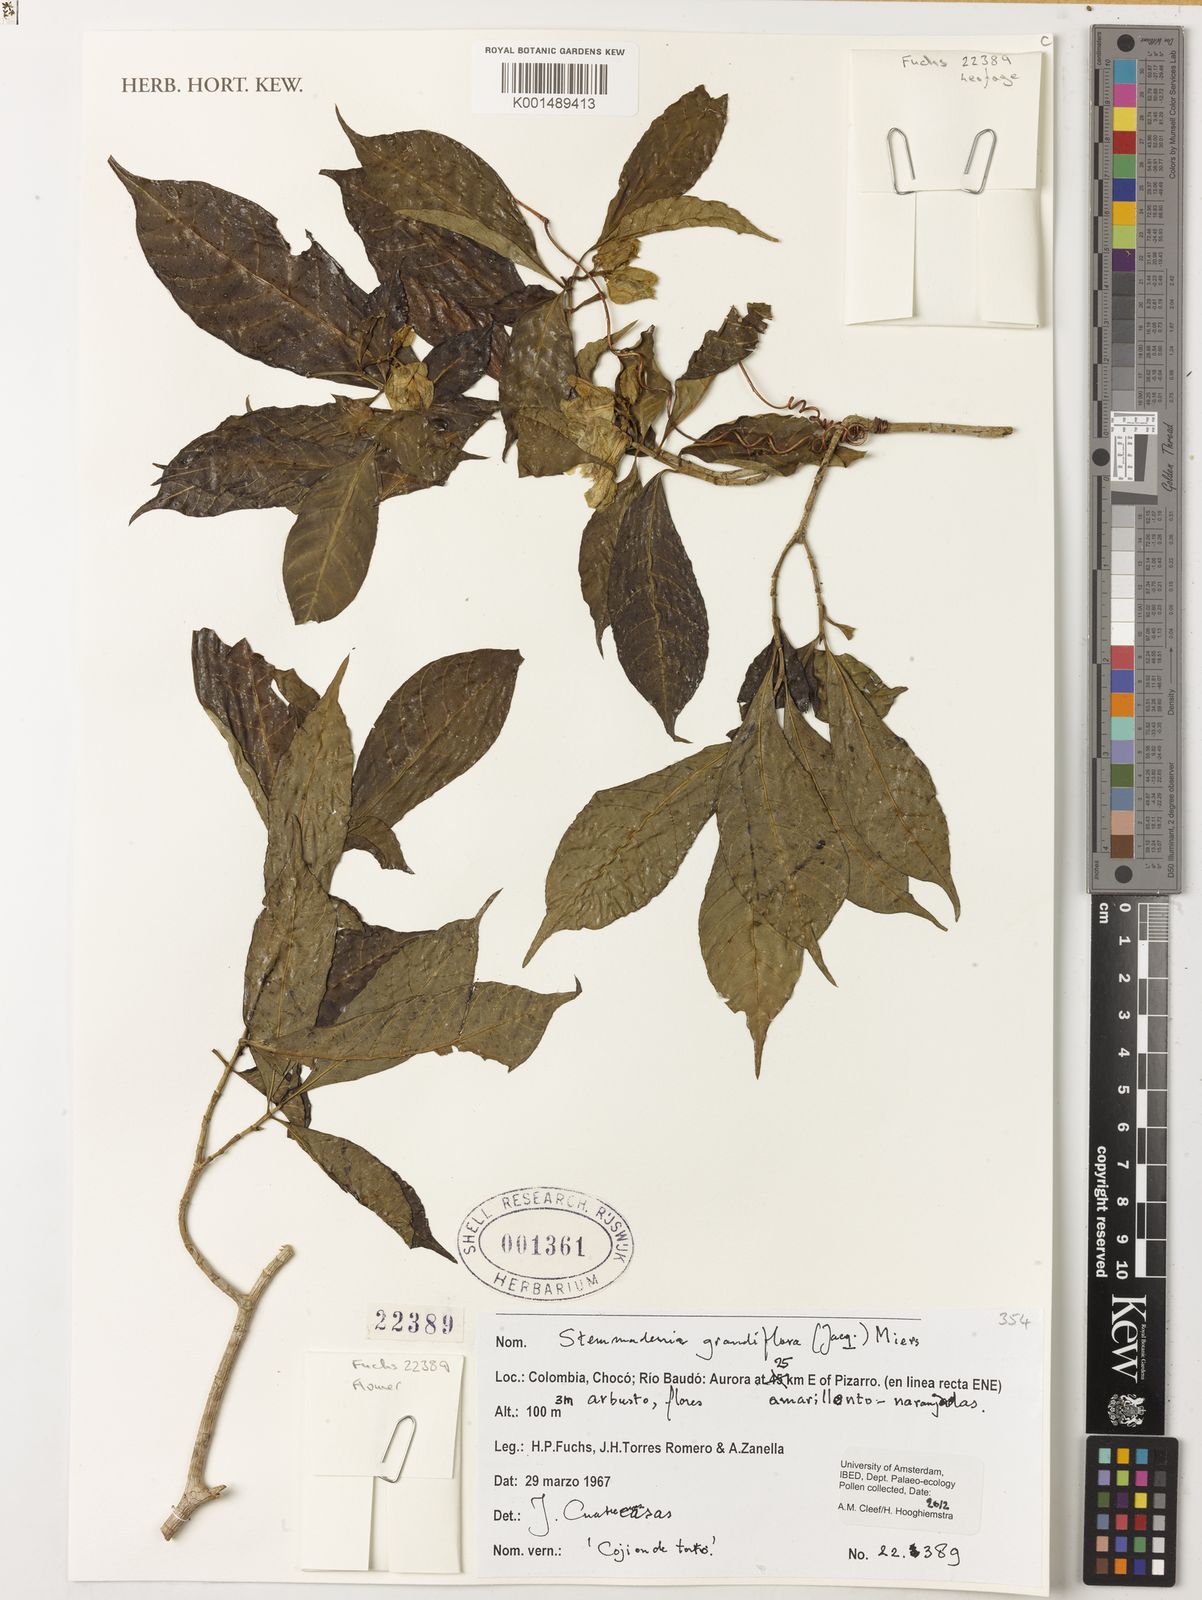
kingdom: Plantae
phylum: Tracheophyta
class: Magnoliopsida
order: Gentianales
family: Apocynaceae
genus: Tabernaemontana
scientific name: Tabernaemontana africana
